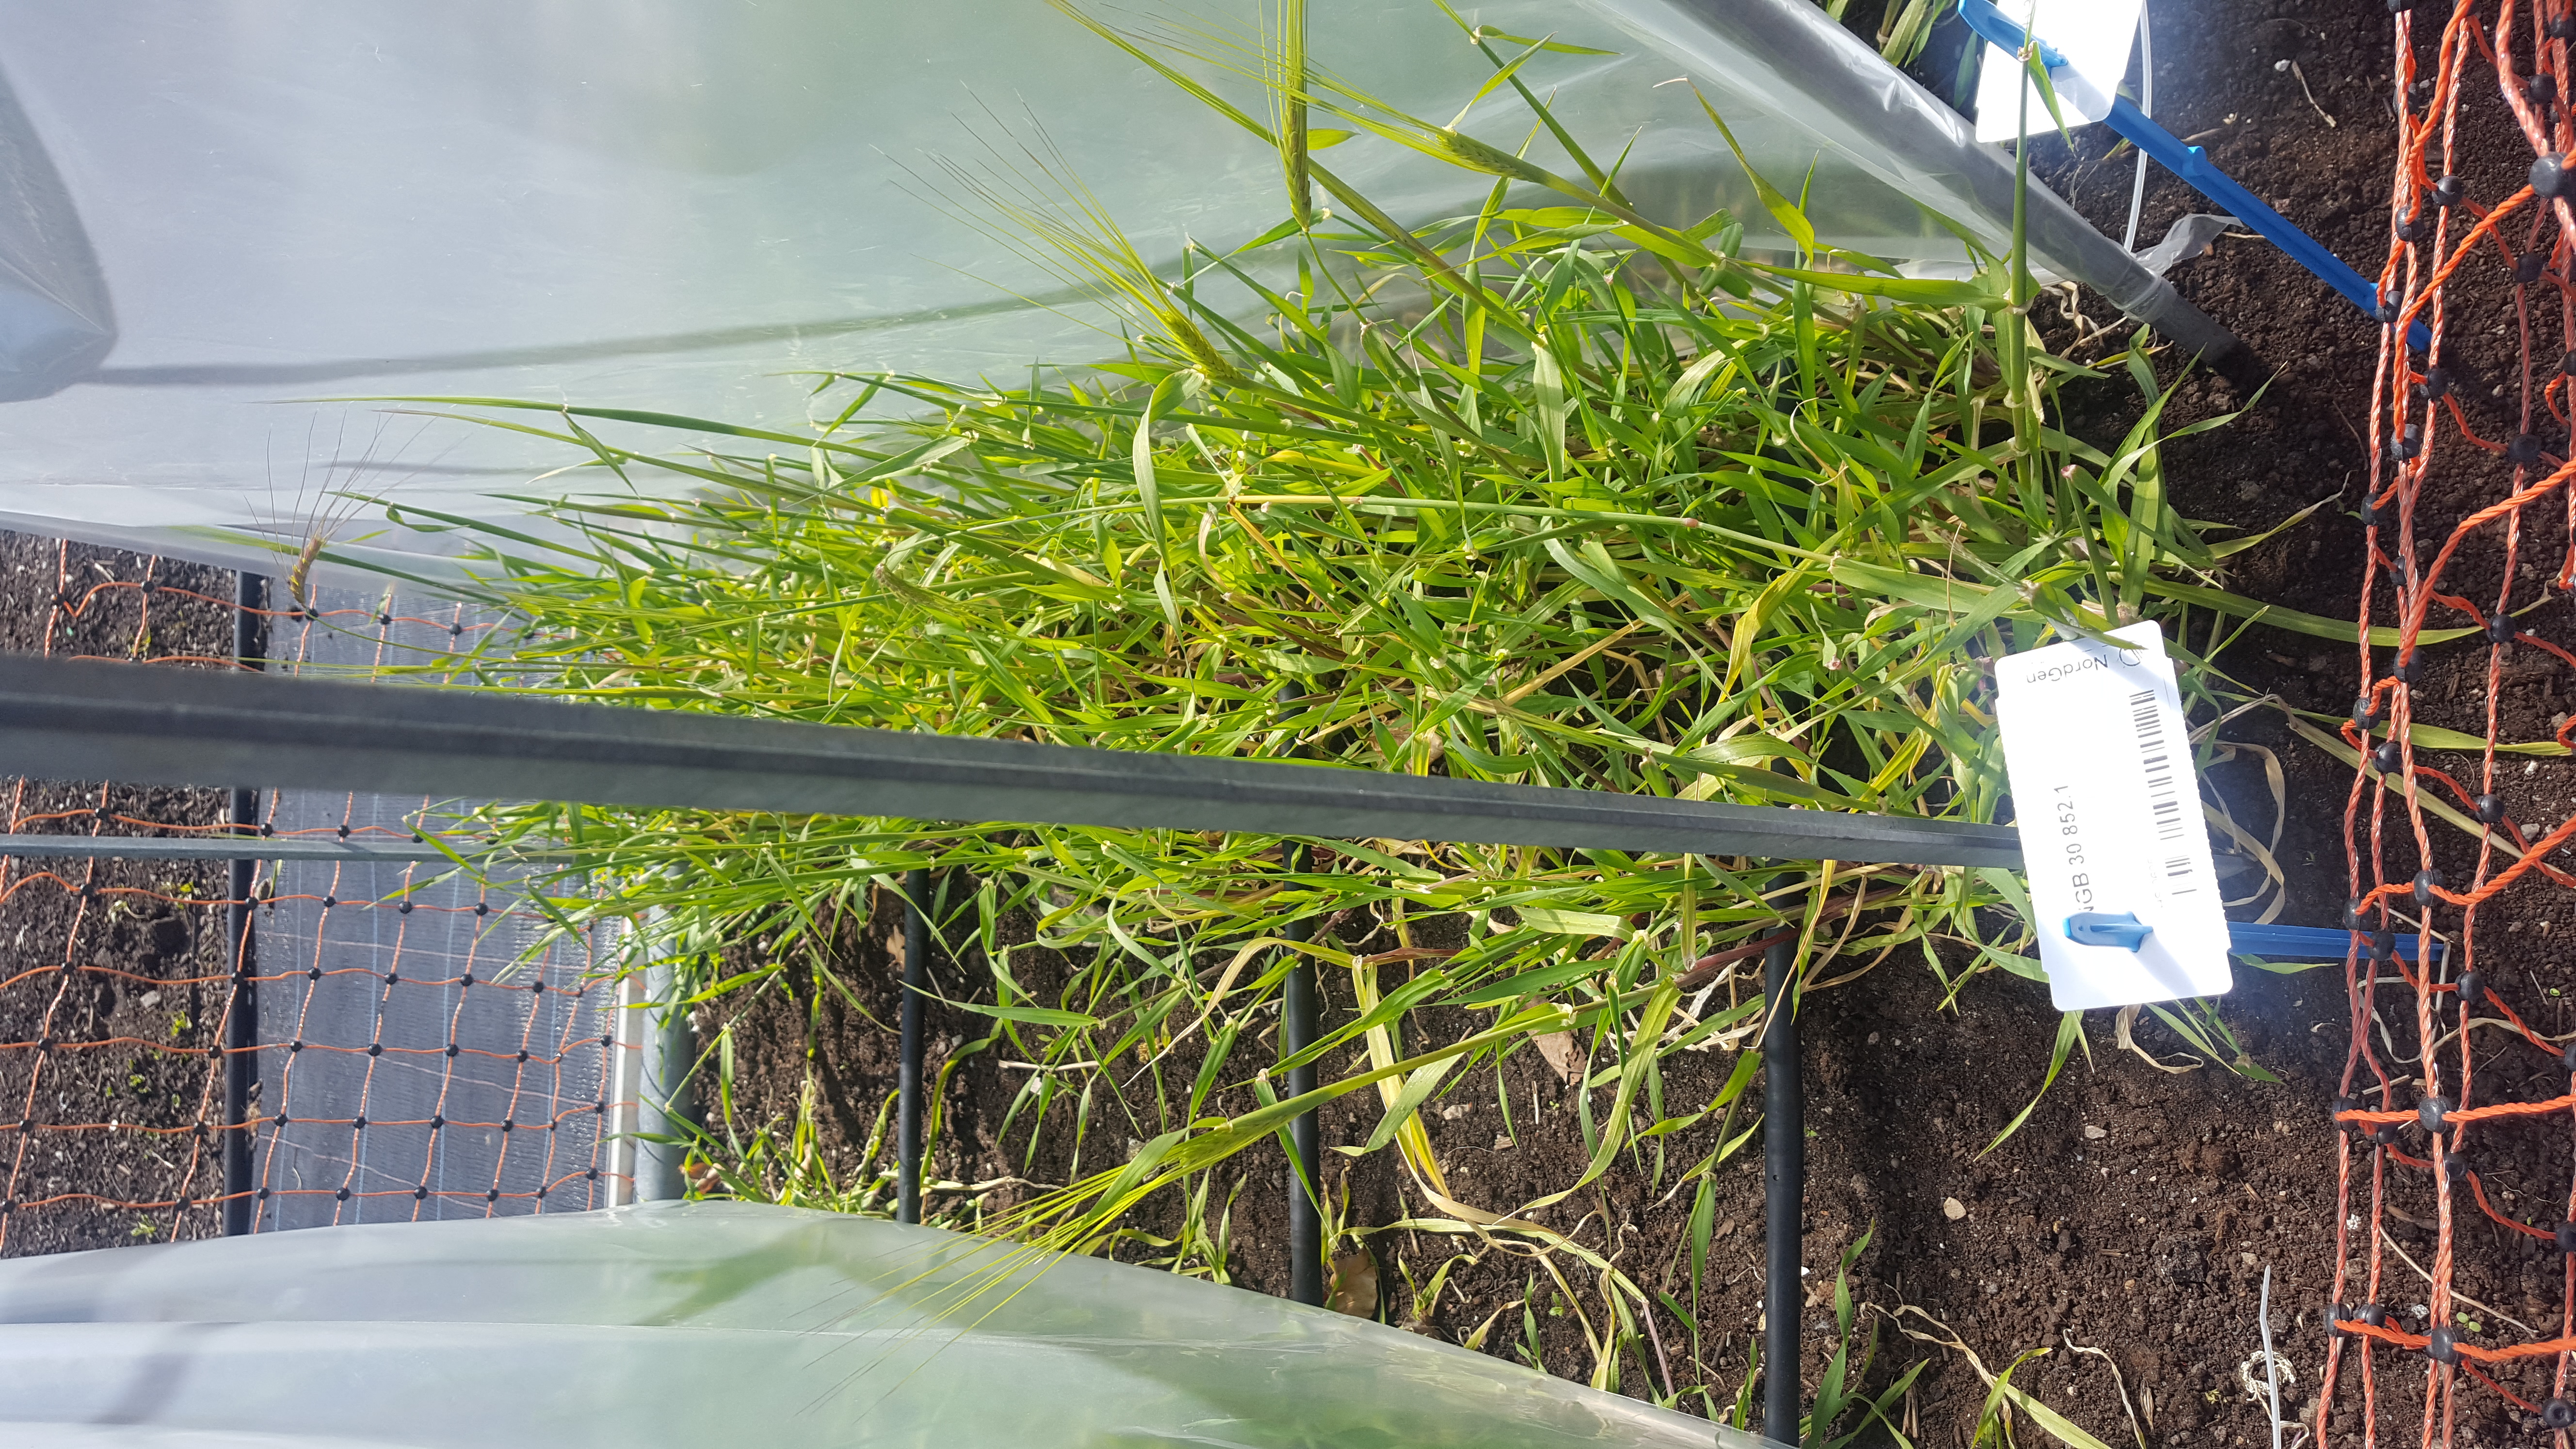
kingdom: Plantae
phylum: Tracheophyta
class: Liliopsida
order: Poales
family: Poaceae
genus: Hordeum
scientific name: Hordeum spontaneum
